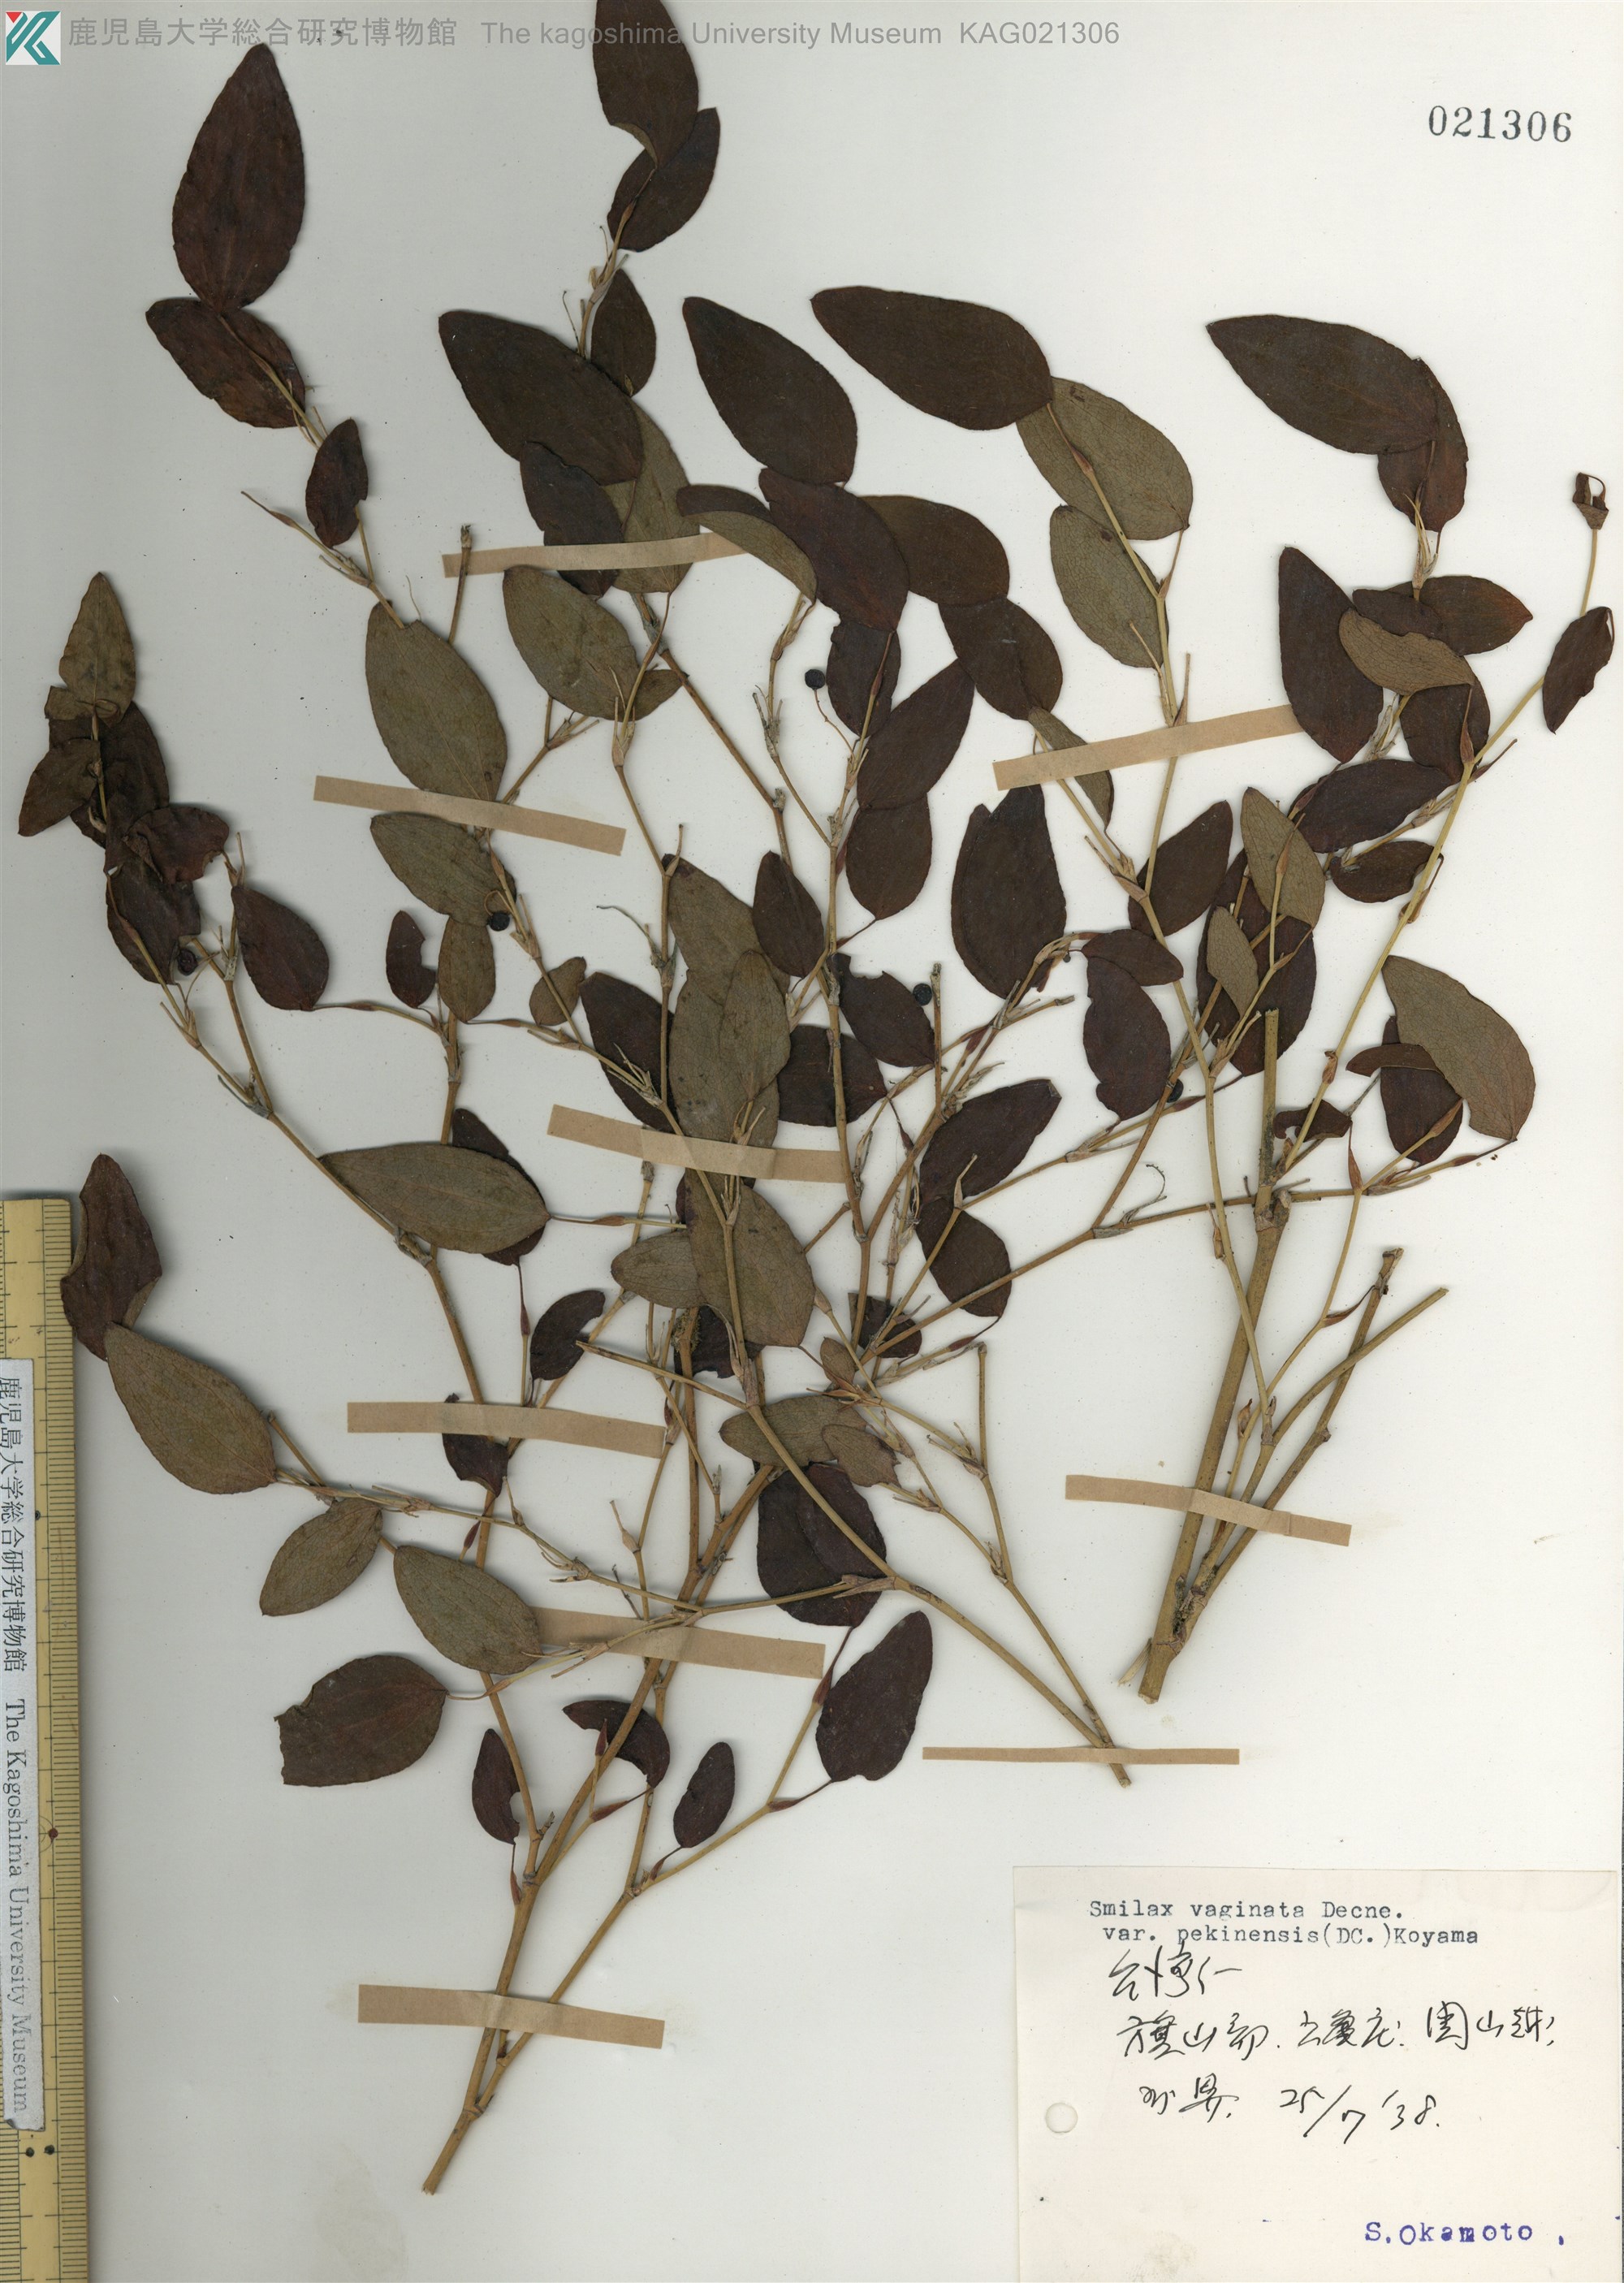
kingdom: Plantae
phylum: Tracheophyta
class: Liliopsida
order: Liliales
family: Smilacaceae
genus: Smilax
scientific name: Smilax vaginata
